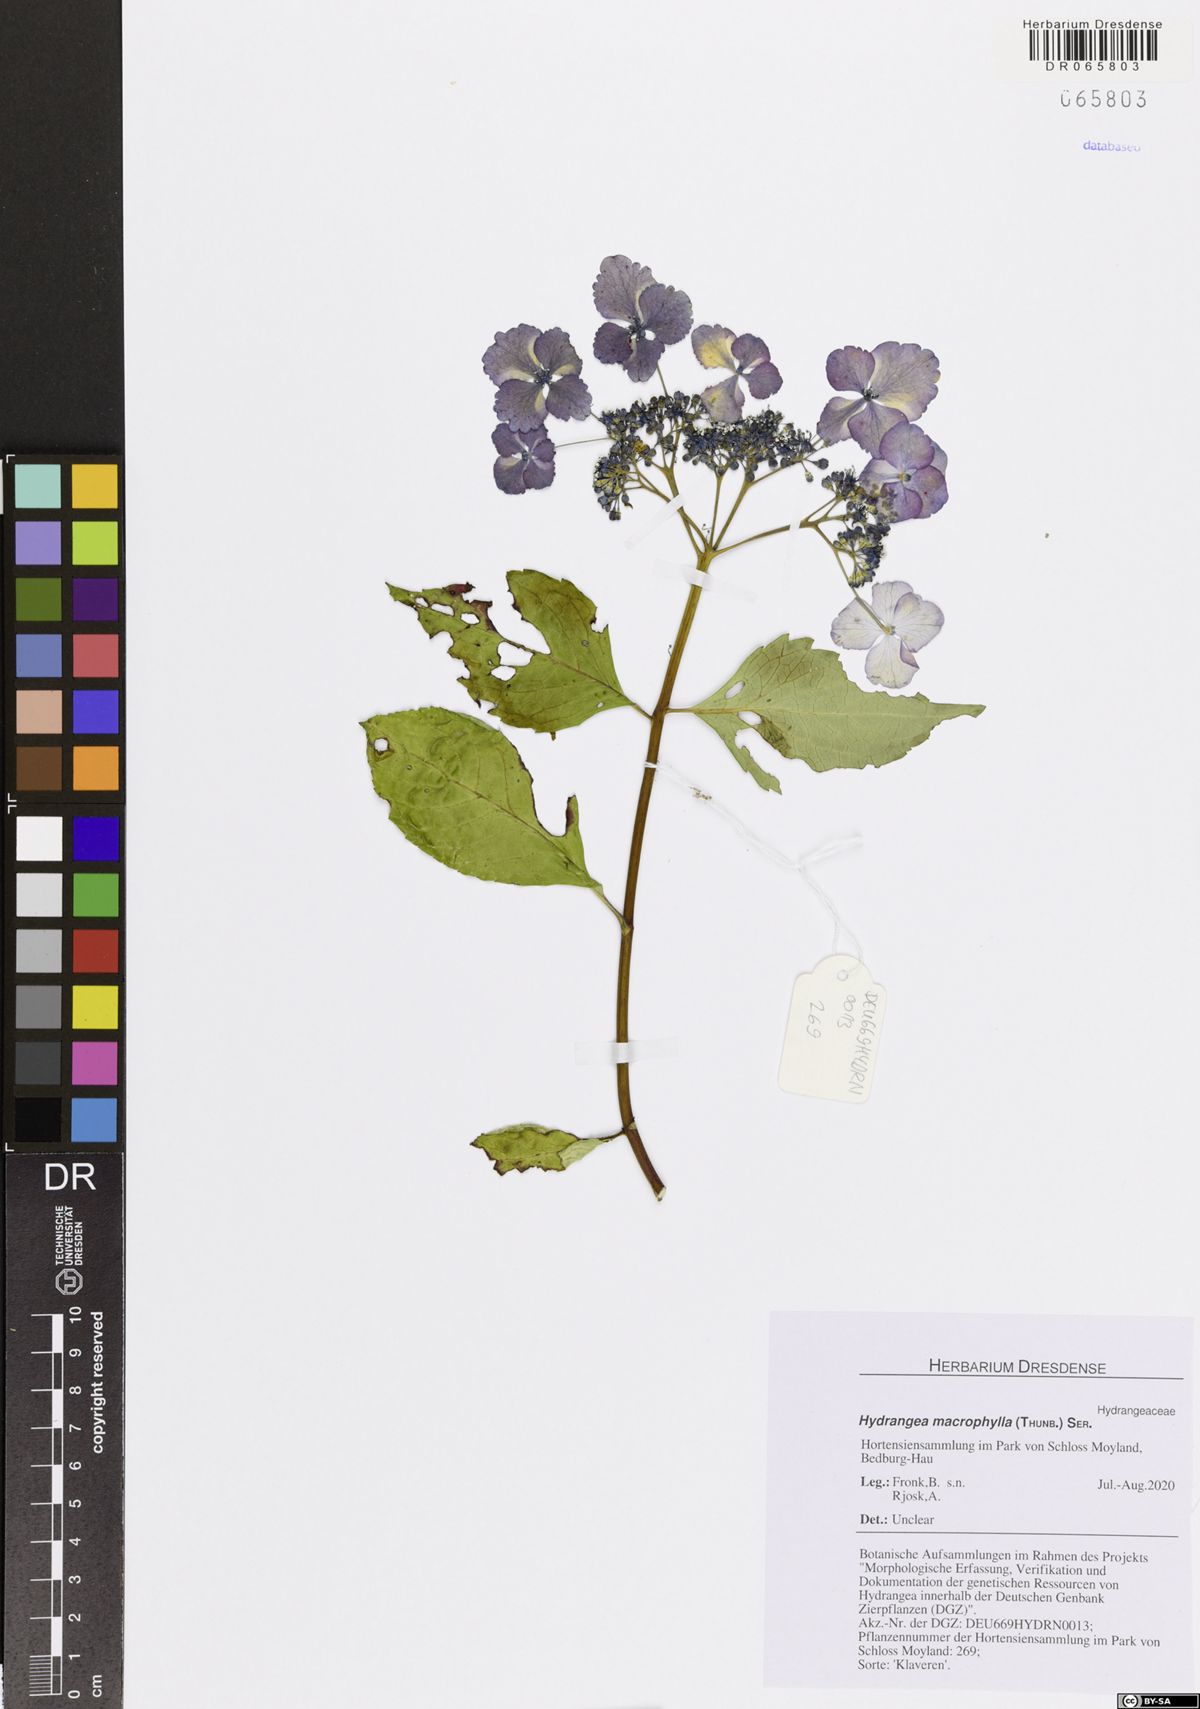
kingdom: Plantae
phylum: Tracheophyta
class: Magnoliopsida
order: Cornales
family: Hydrangeaceae
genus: Hydrangea
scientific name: Hydrangea macrophylla
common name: Hydrangea
